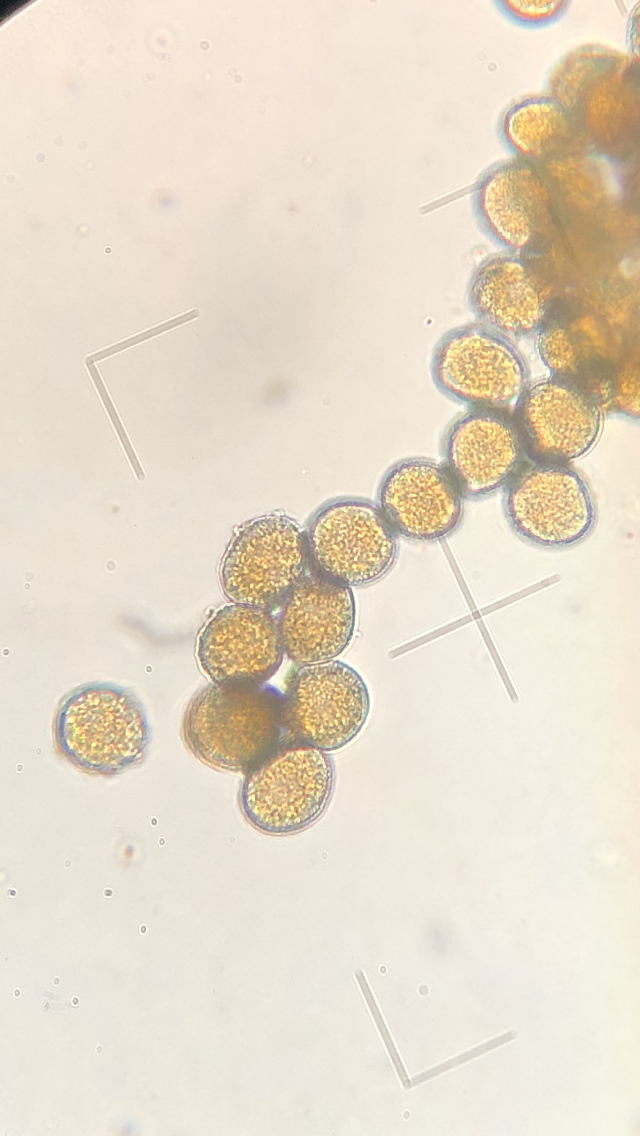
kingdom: Fungi
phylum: Basidiomycota
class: Pucciniomycetes
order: Pucciniales
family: Pucciniaceae
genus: Puccinia
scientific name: Puccinia violae
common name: viol-tvecellerust
